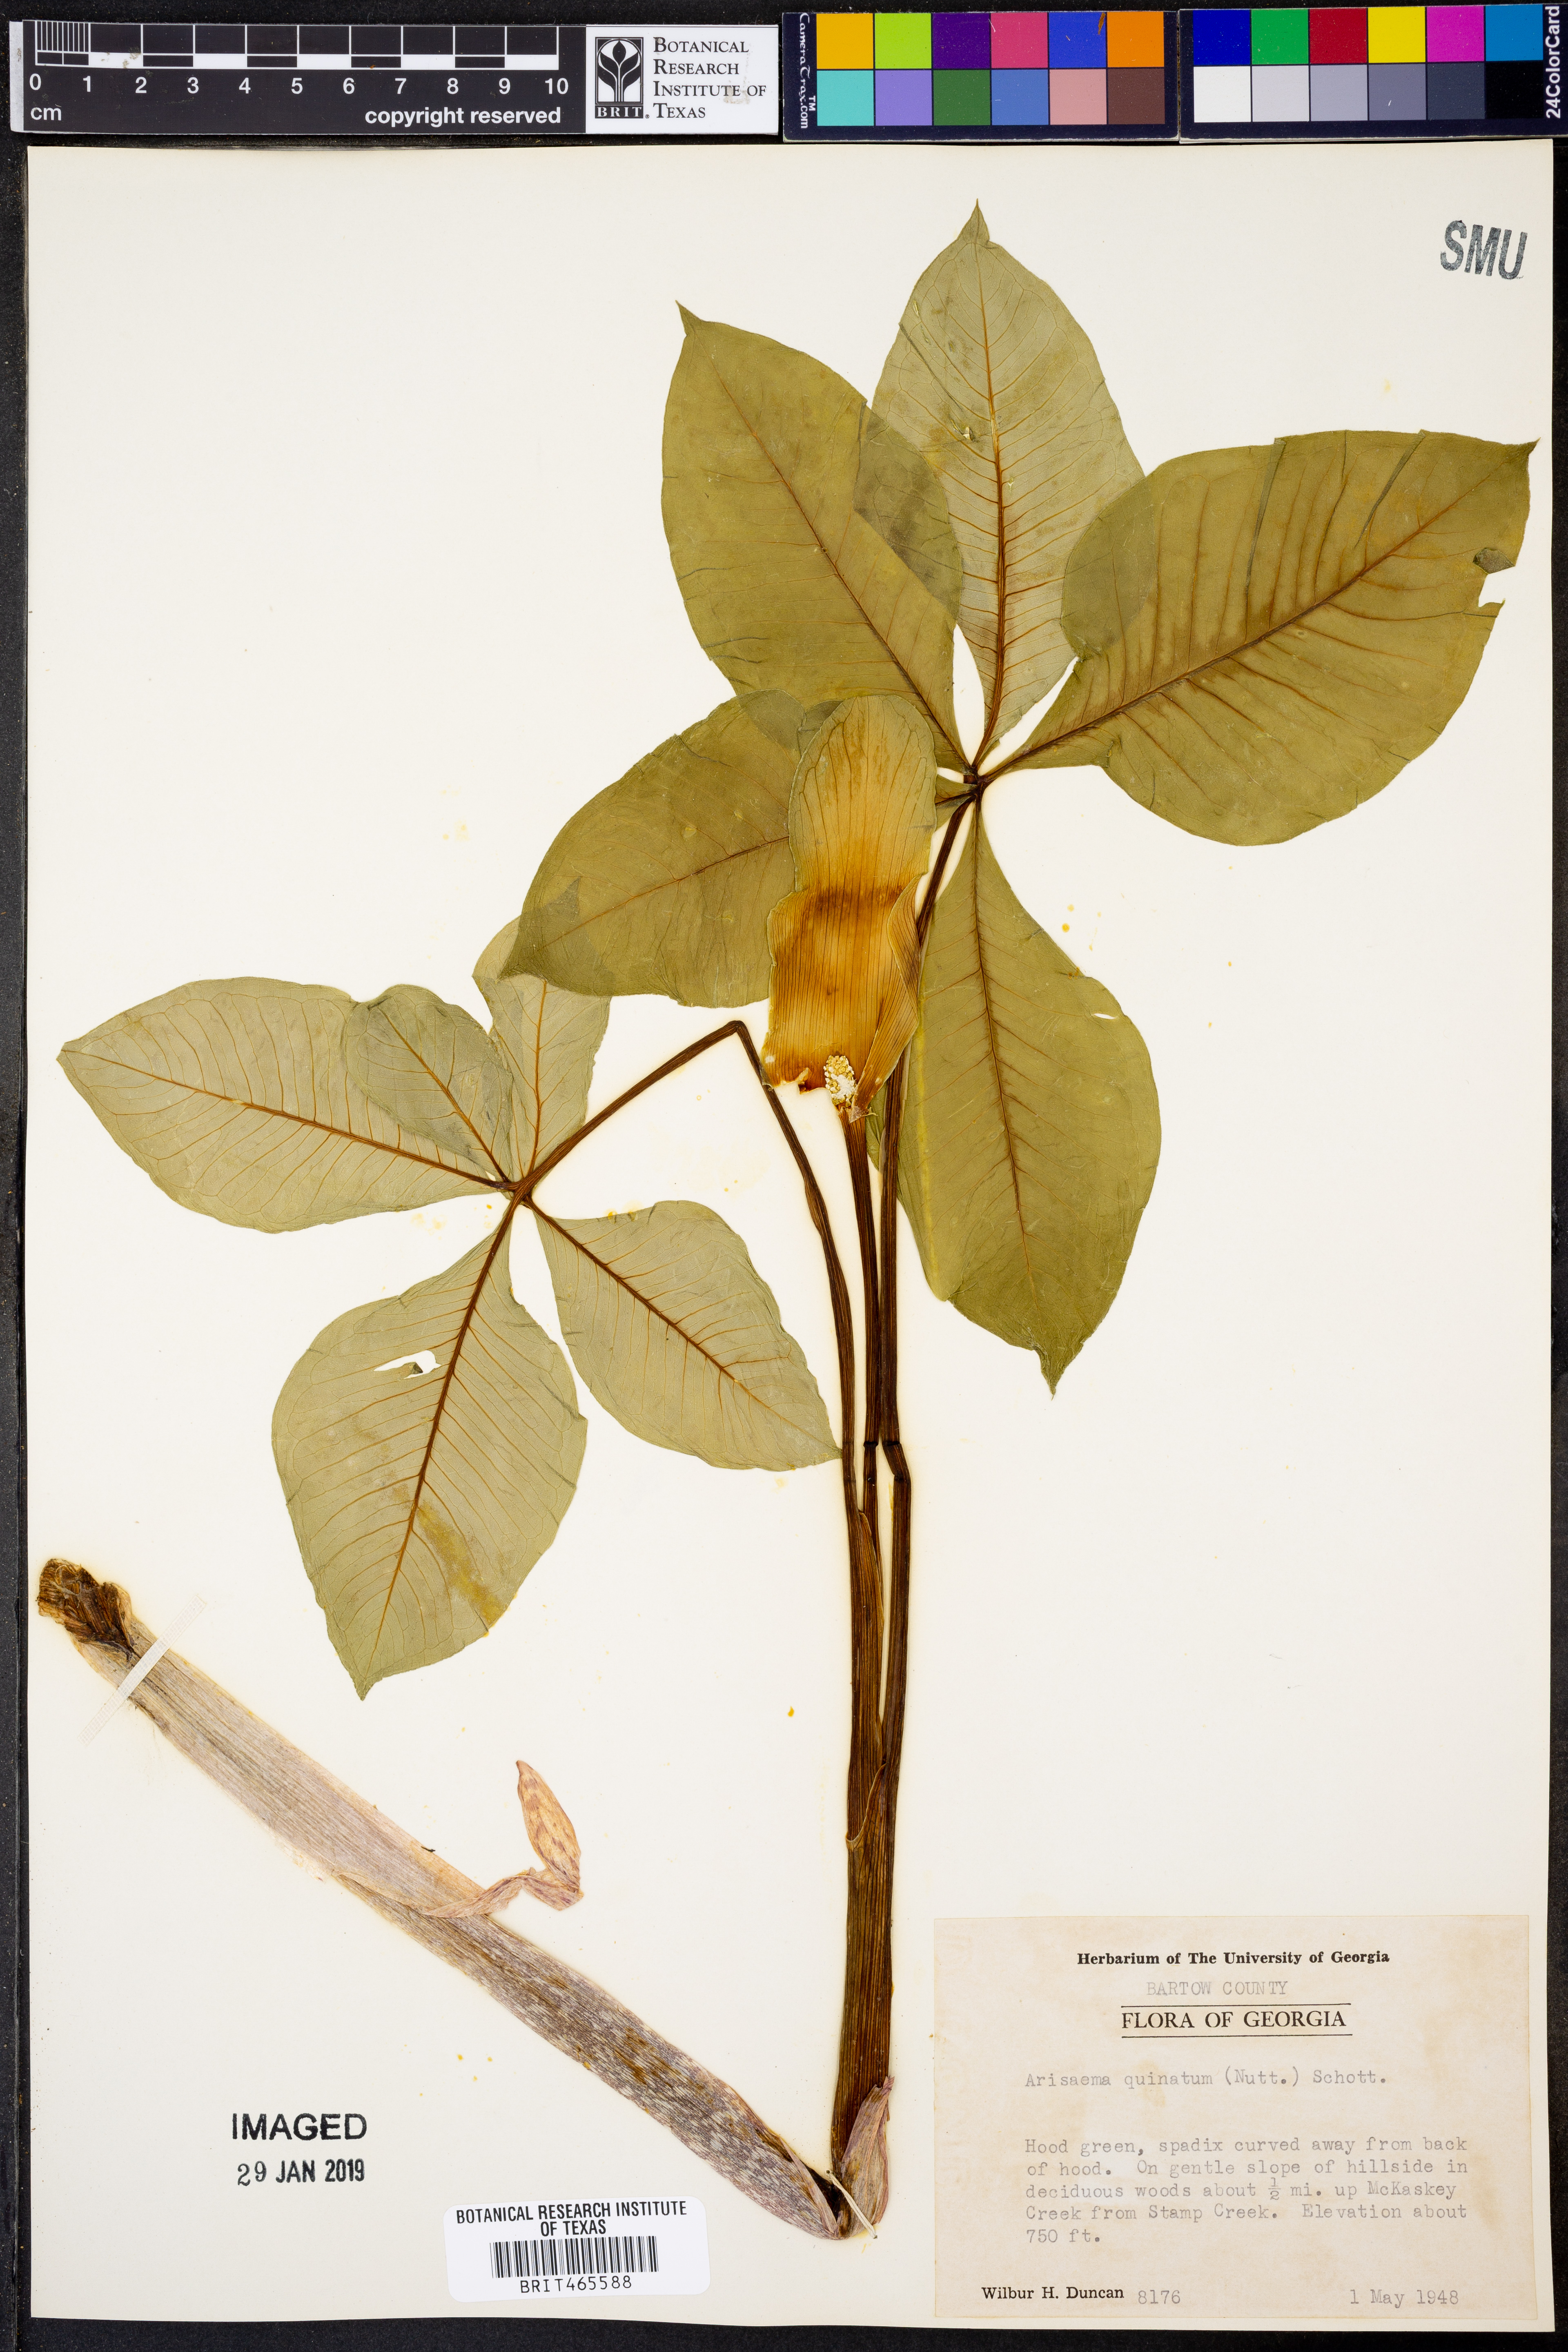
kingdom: Plantae
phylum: Tracheophyta
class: Liliopsida
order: Alismatales
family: Araceae
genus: Arisaema
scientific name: Arisaema quinatum
